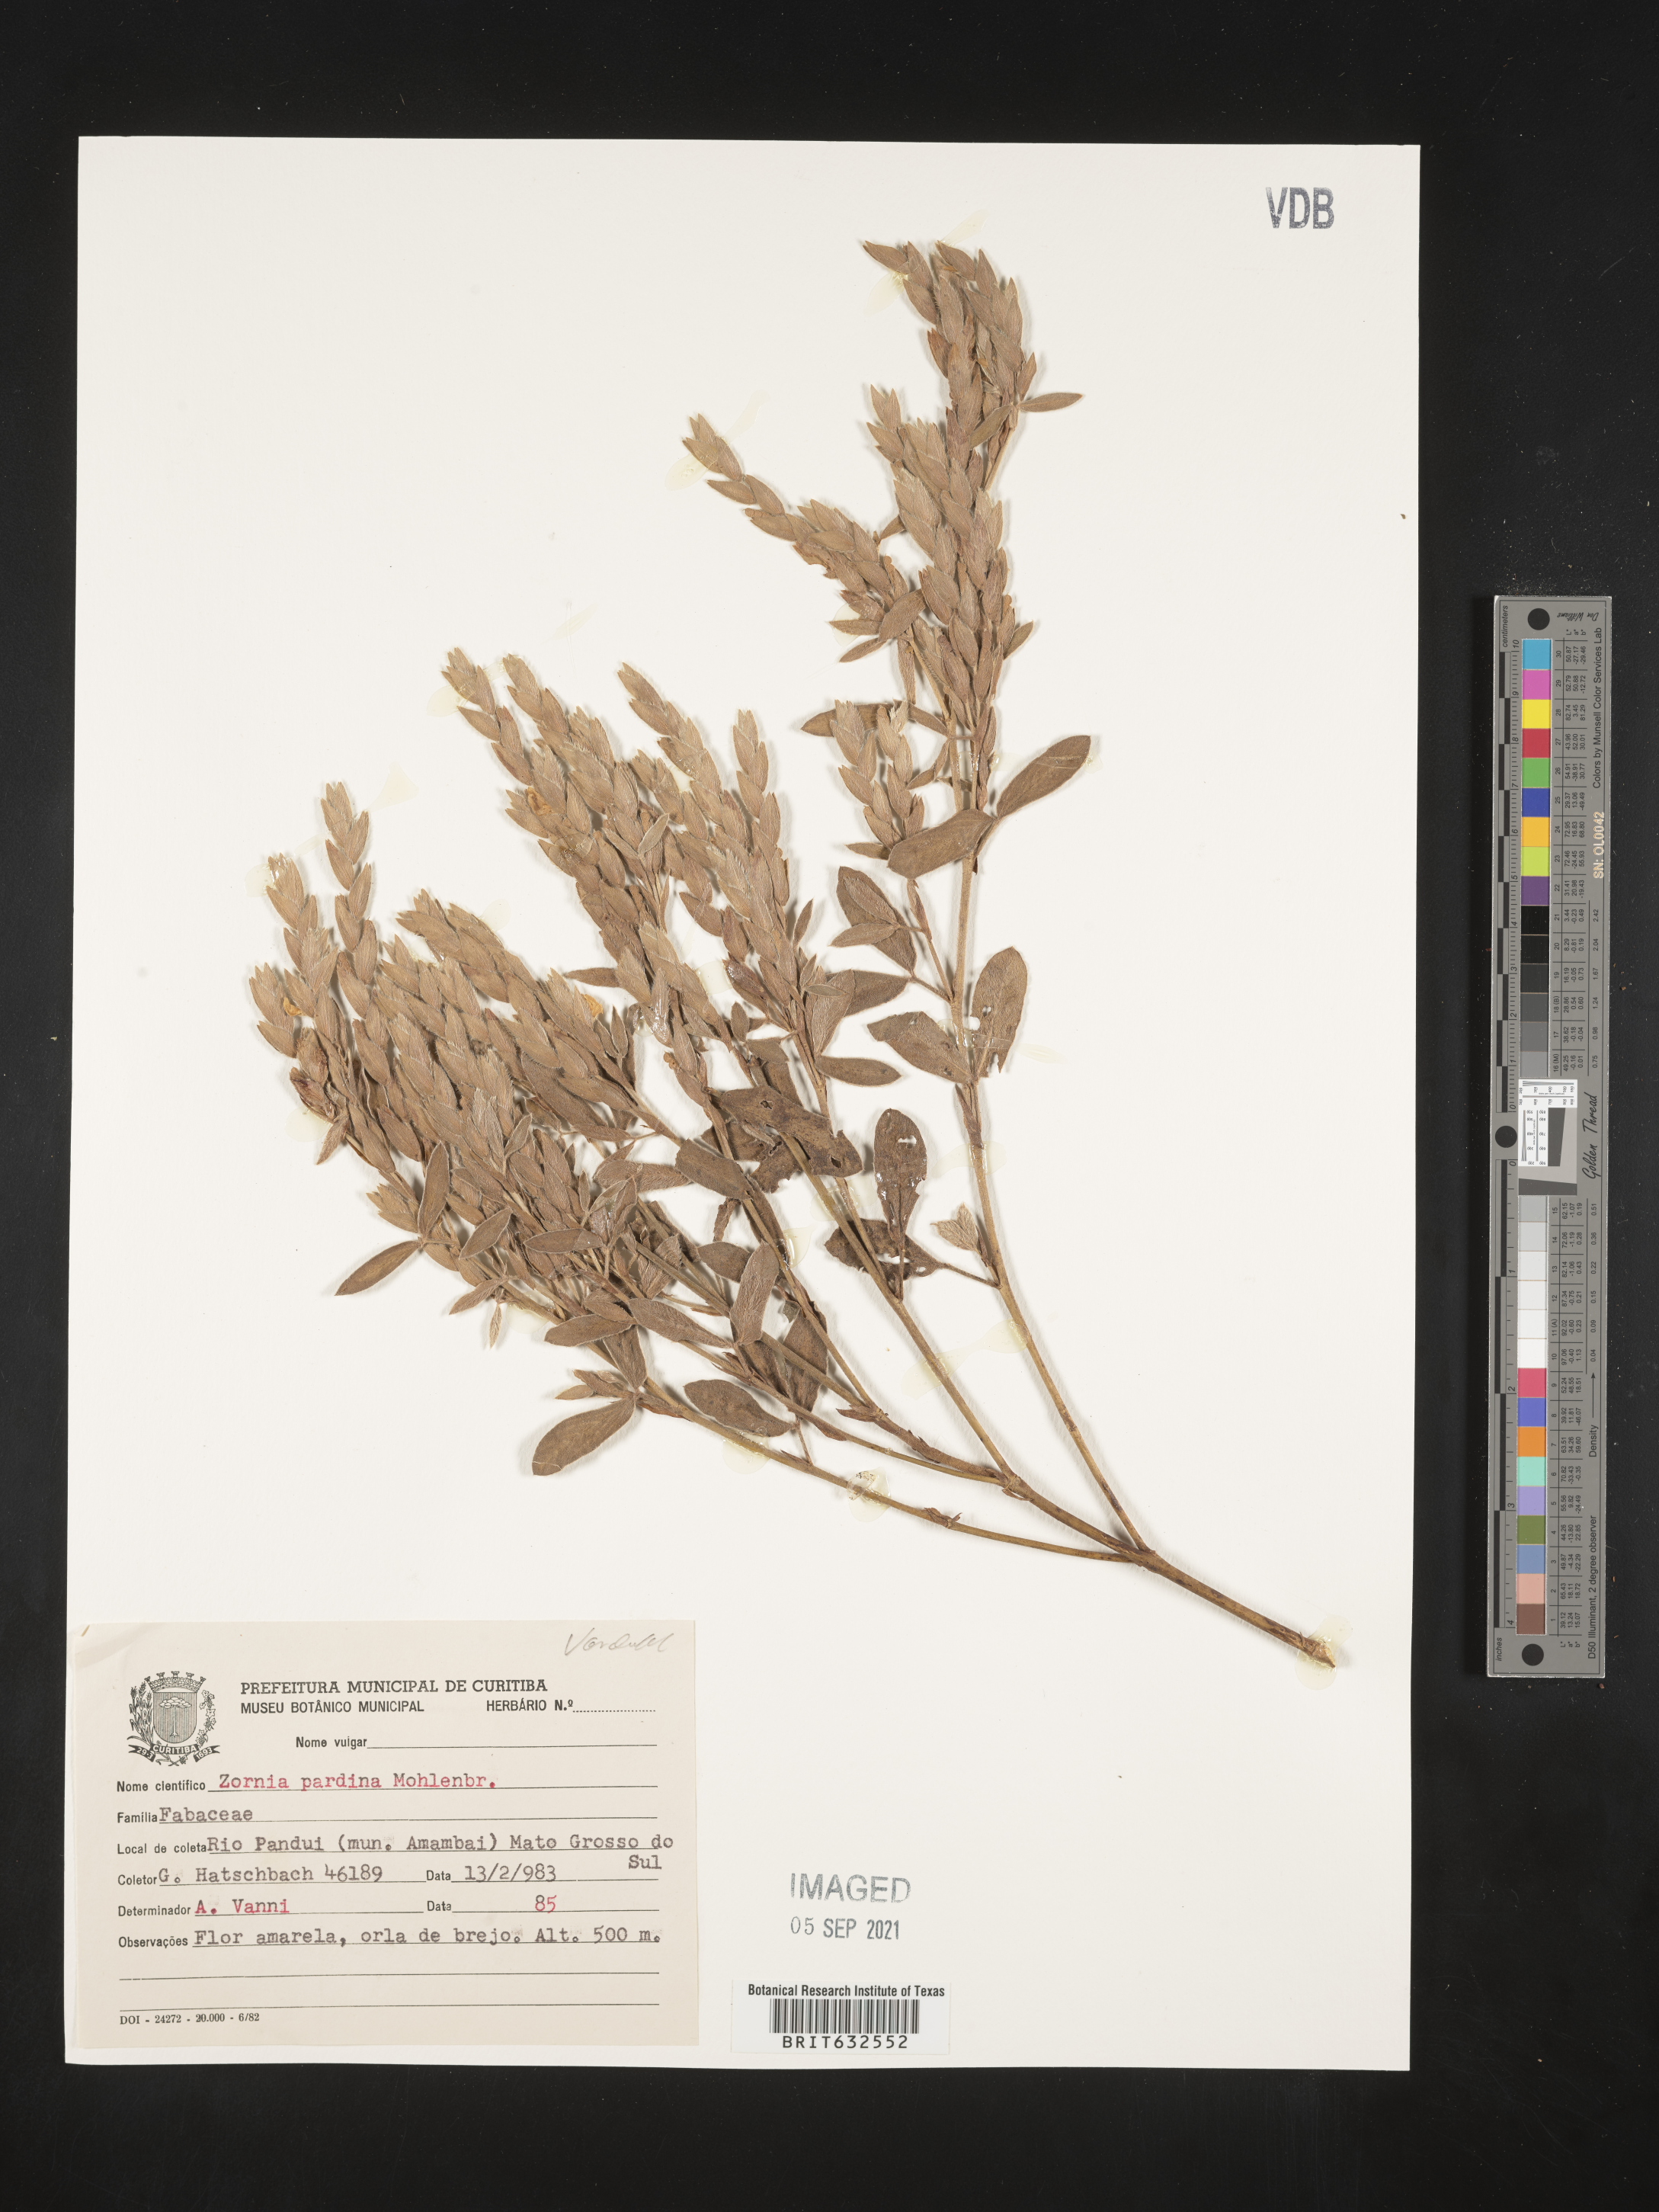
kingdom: Plantae
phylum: Tracheophyta
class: Magnoliopsida
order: Fabales
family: Fabaceae
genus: Zornia
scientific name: Zornia
